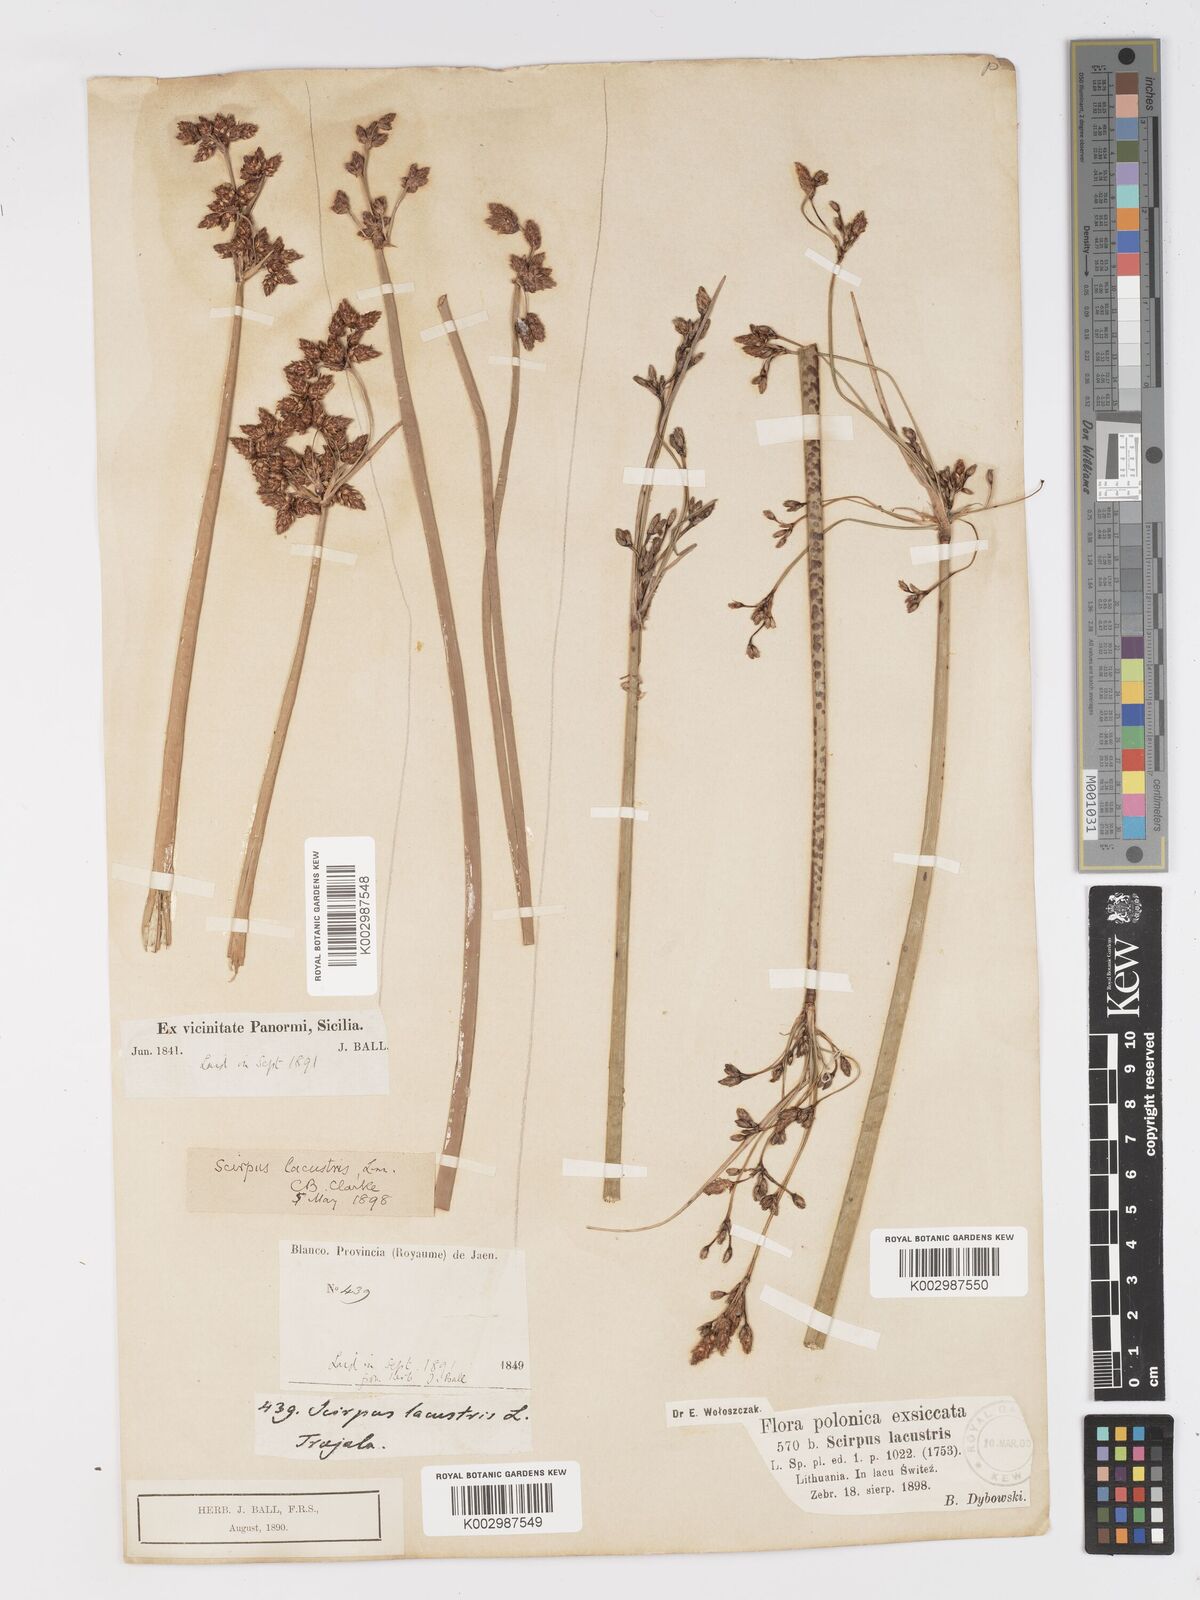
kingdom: Plantae
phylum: Tracheophyta
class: Liliopsida
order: Poales
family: Cyperaceae
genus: Schoenoplectus
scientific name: Schoenoplectus lacustris
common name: Common club-rush
